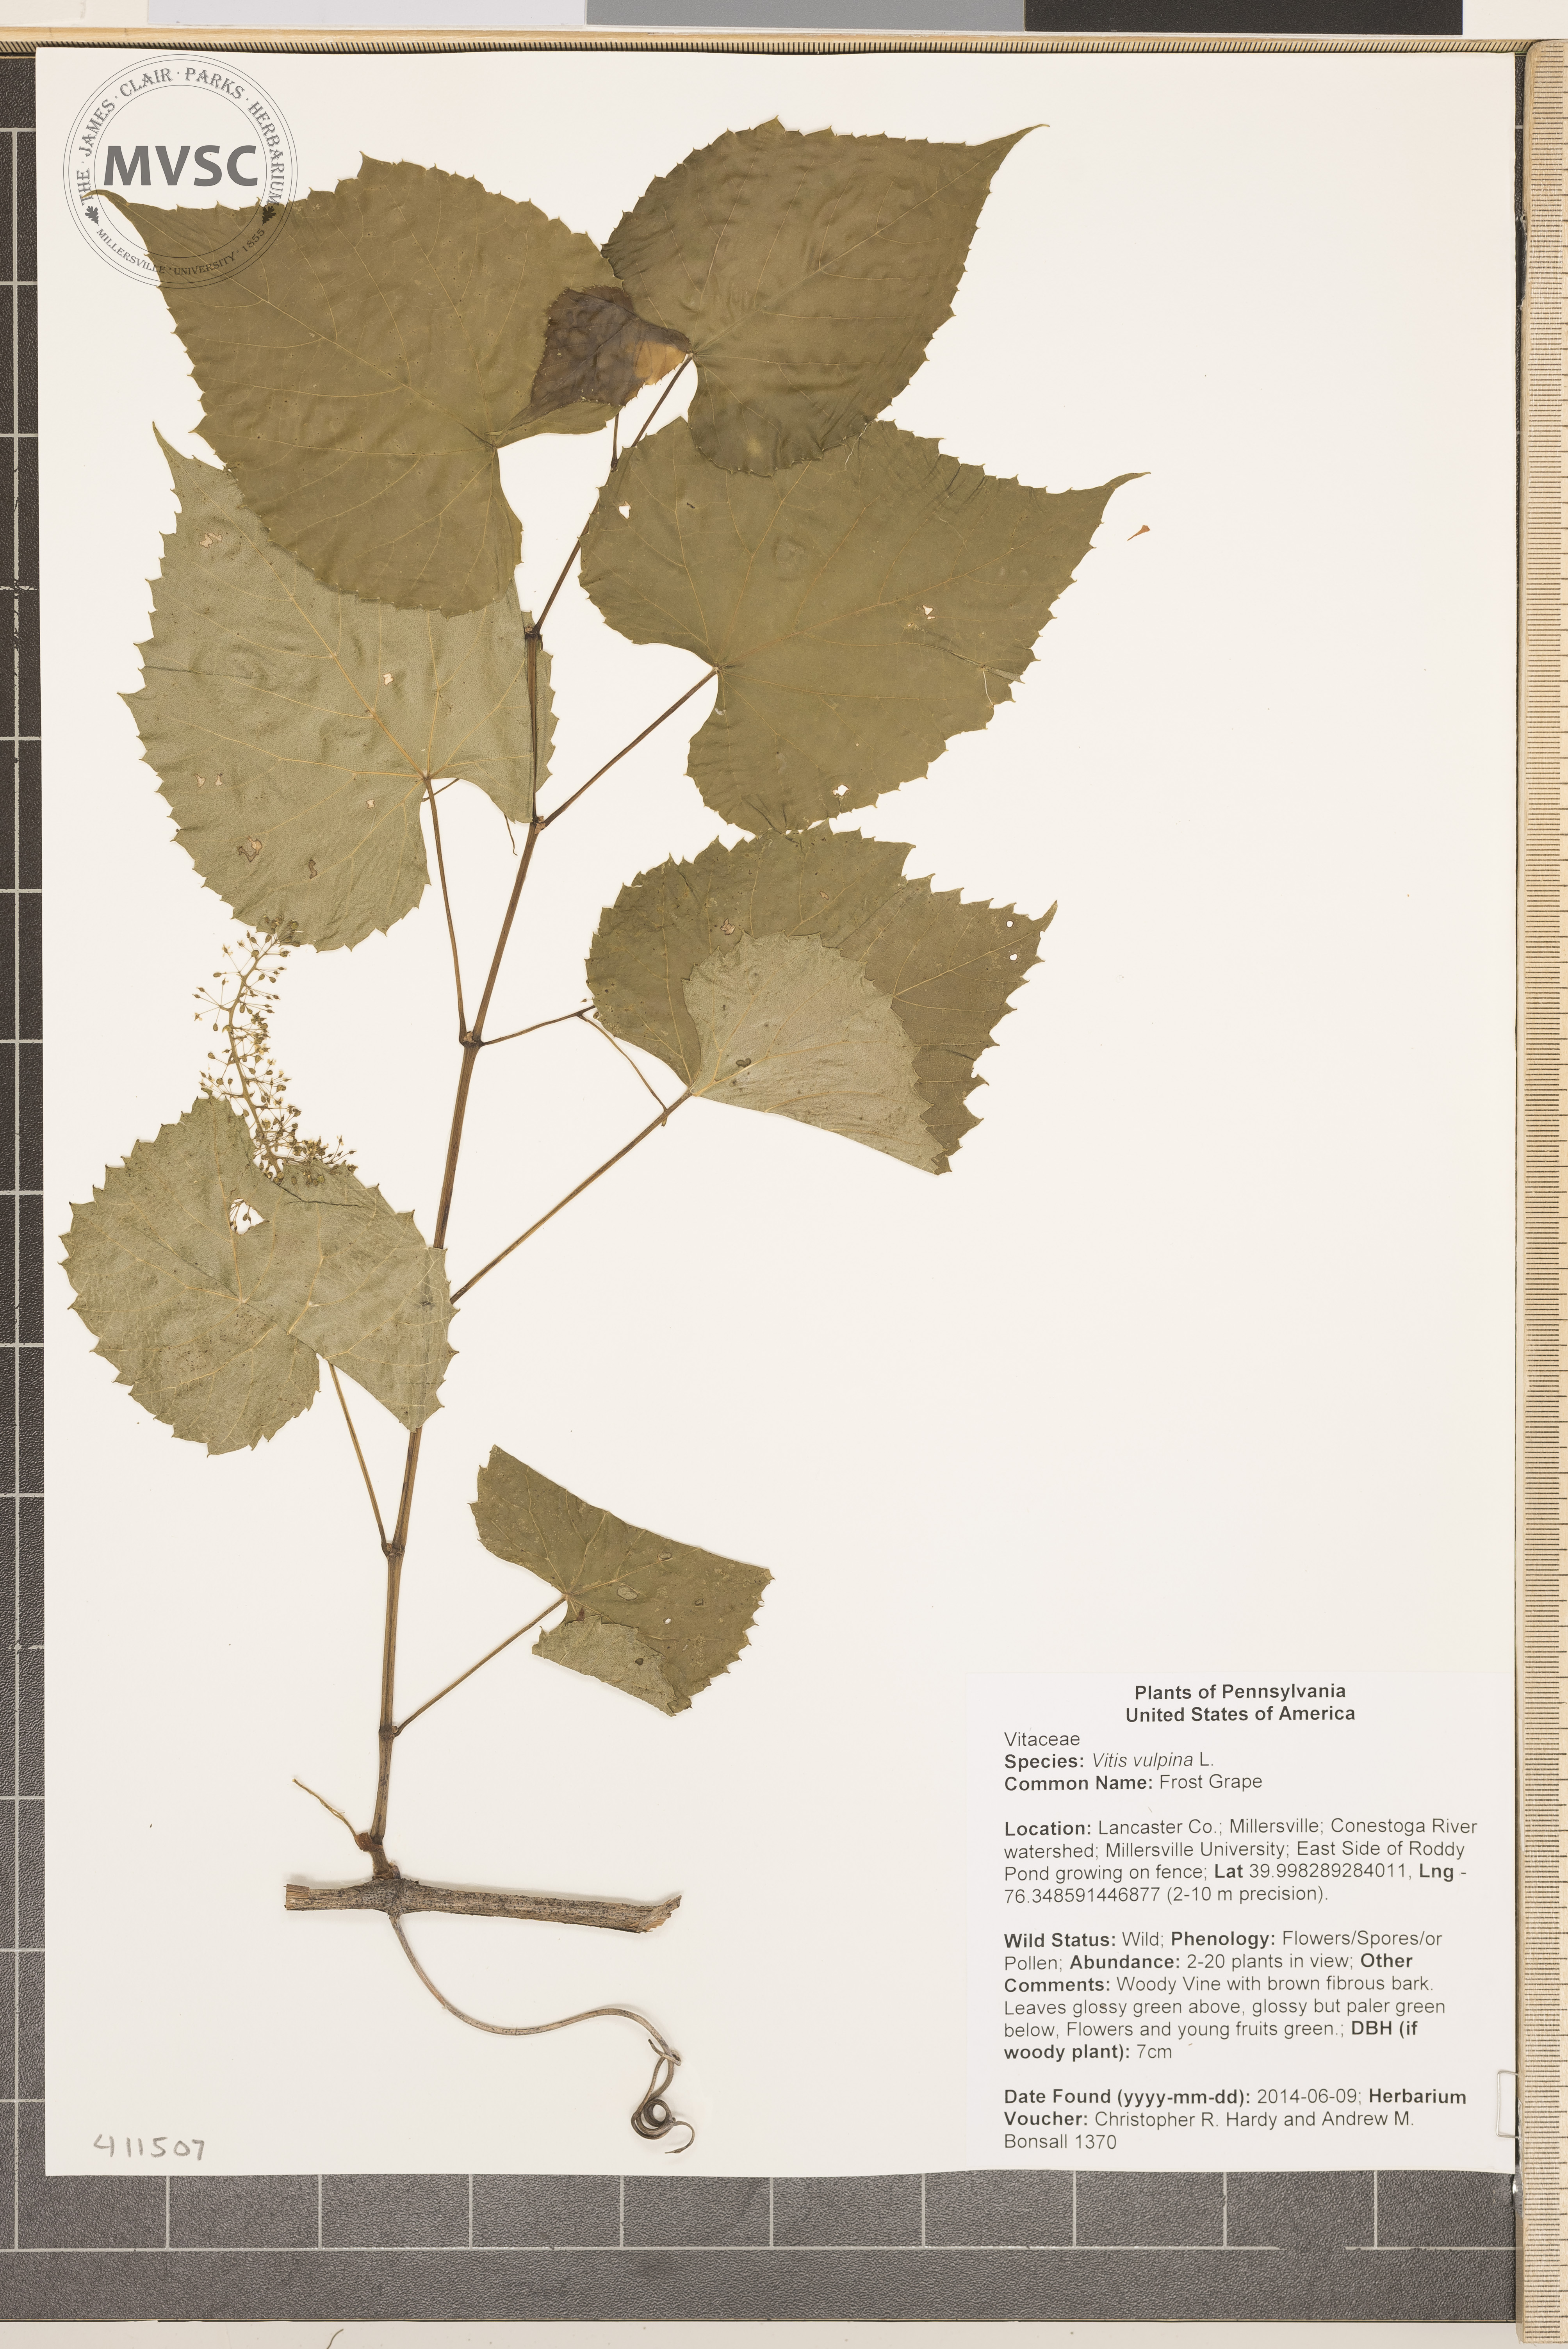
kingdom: Plantae
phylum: Tracheophyta
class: Magnoliopsida
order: Vitales
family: Vitaceae
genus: Vitis
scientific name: Vitis vulpina
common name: Frost Grape
